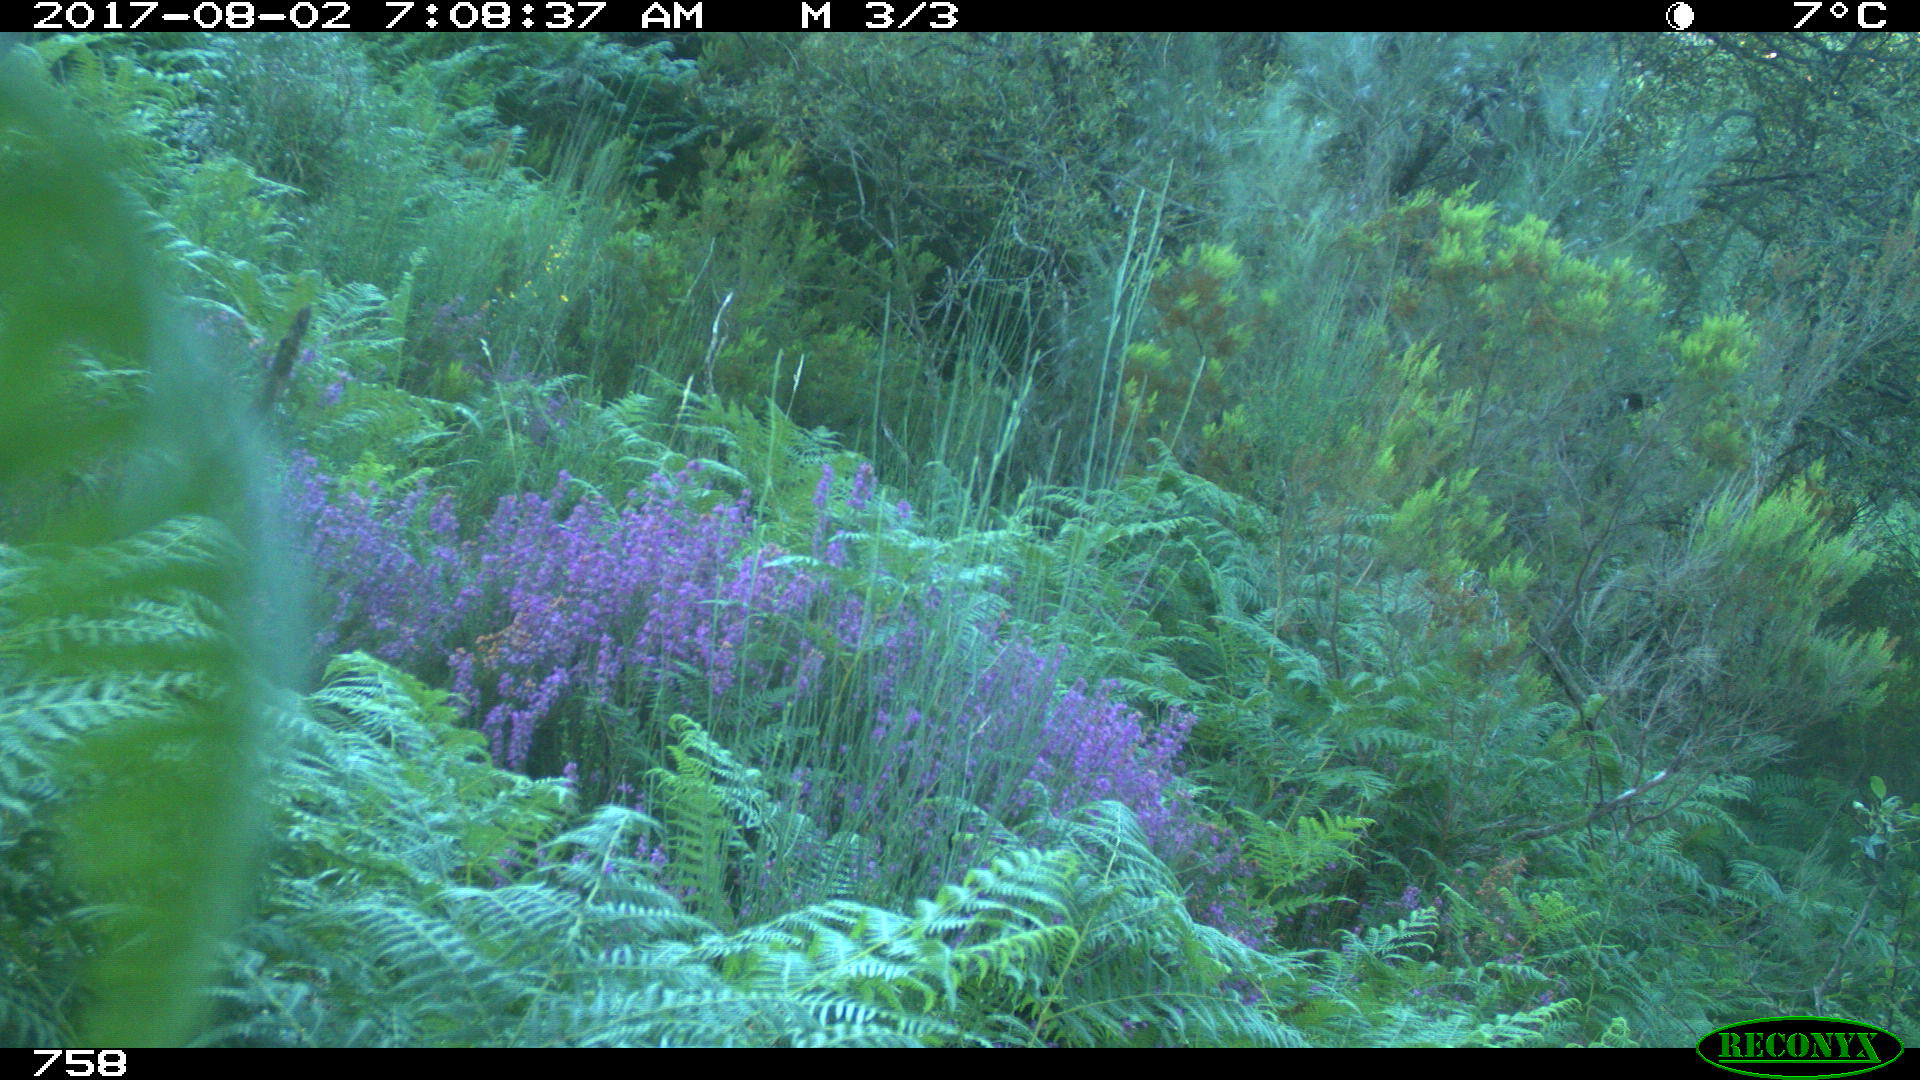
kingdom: Animalia
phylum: Chordata
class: Mammalia
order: Perissodactyla
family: Equidae
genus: Equus
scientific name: Equus caballus
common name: Horse
